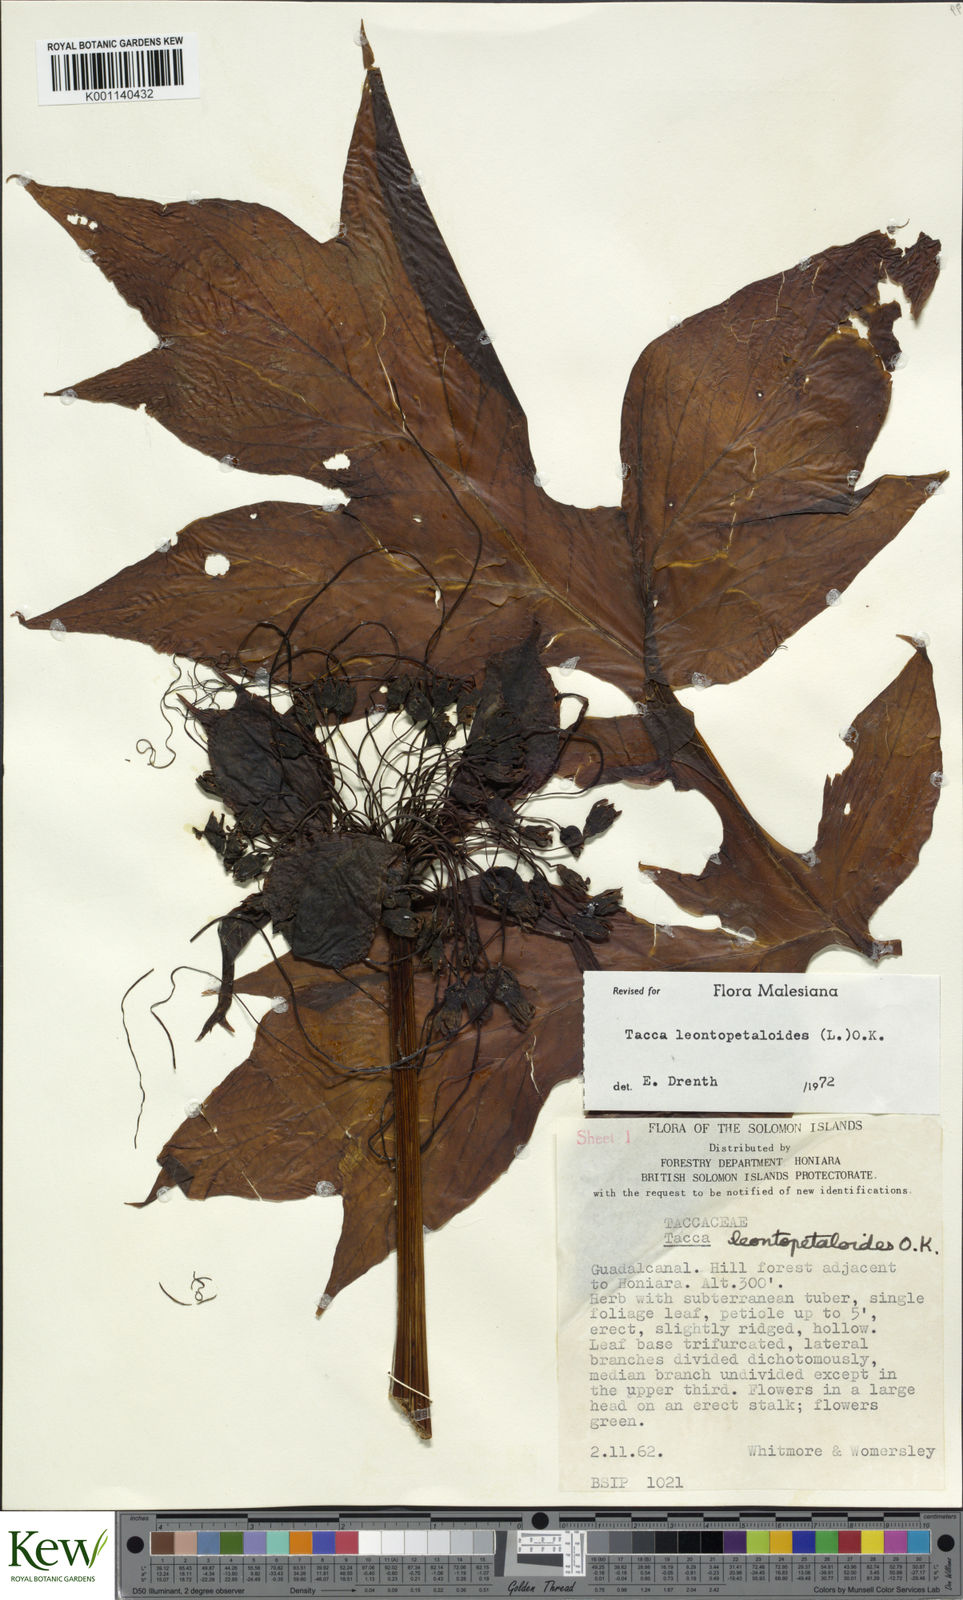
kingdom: Plantae
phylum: Tracheophyta
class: Liliopsida
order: Dioscoreales
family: Dioscoreaceae
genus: Tacca
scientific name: Tacca leontopetaloides
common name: Arrowroot
